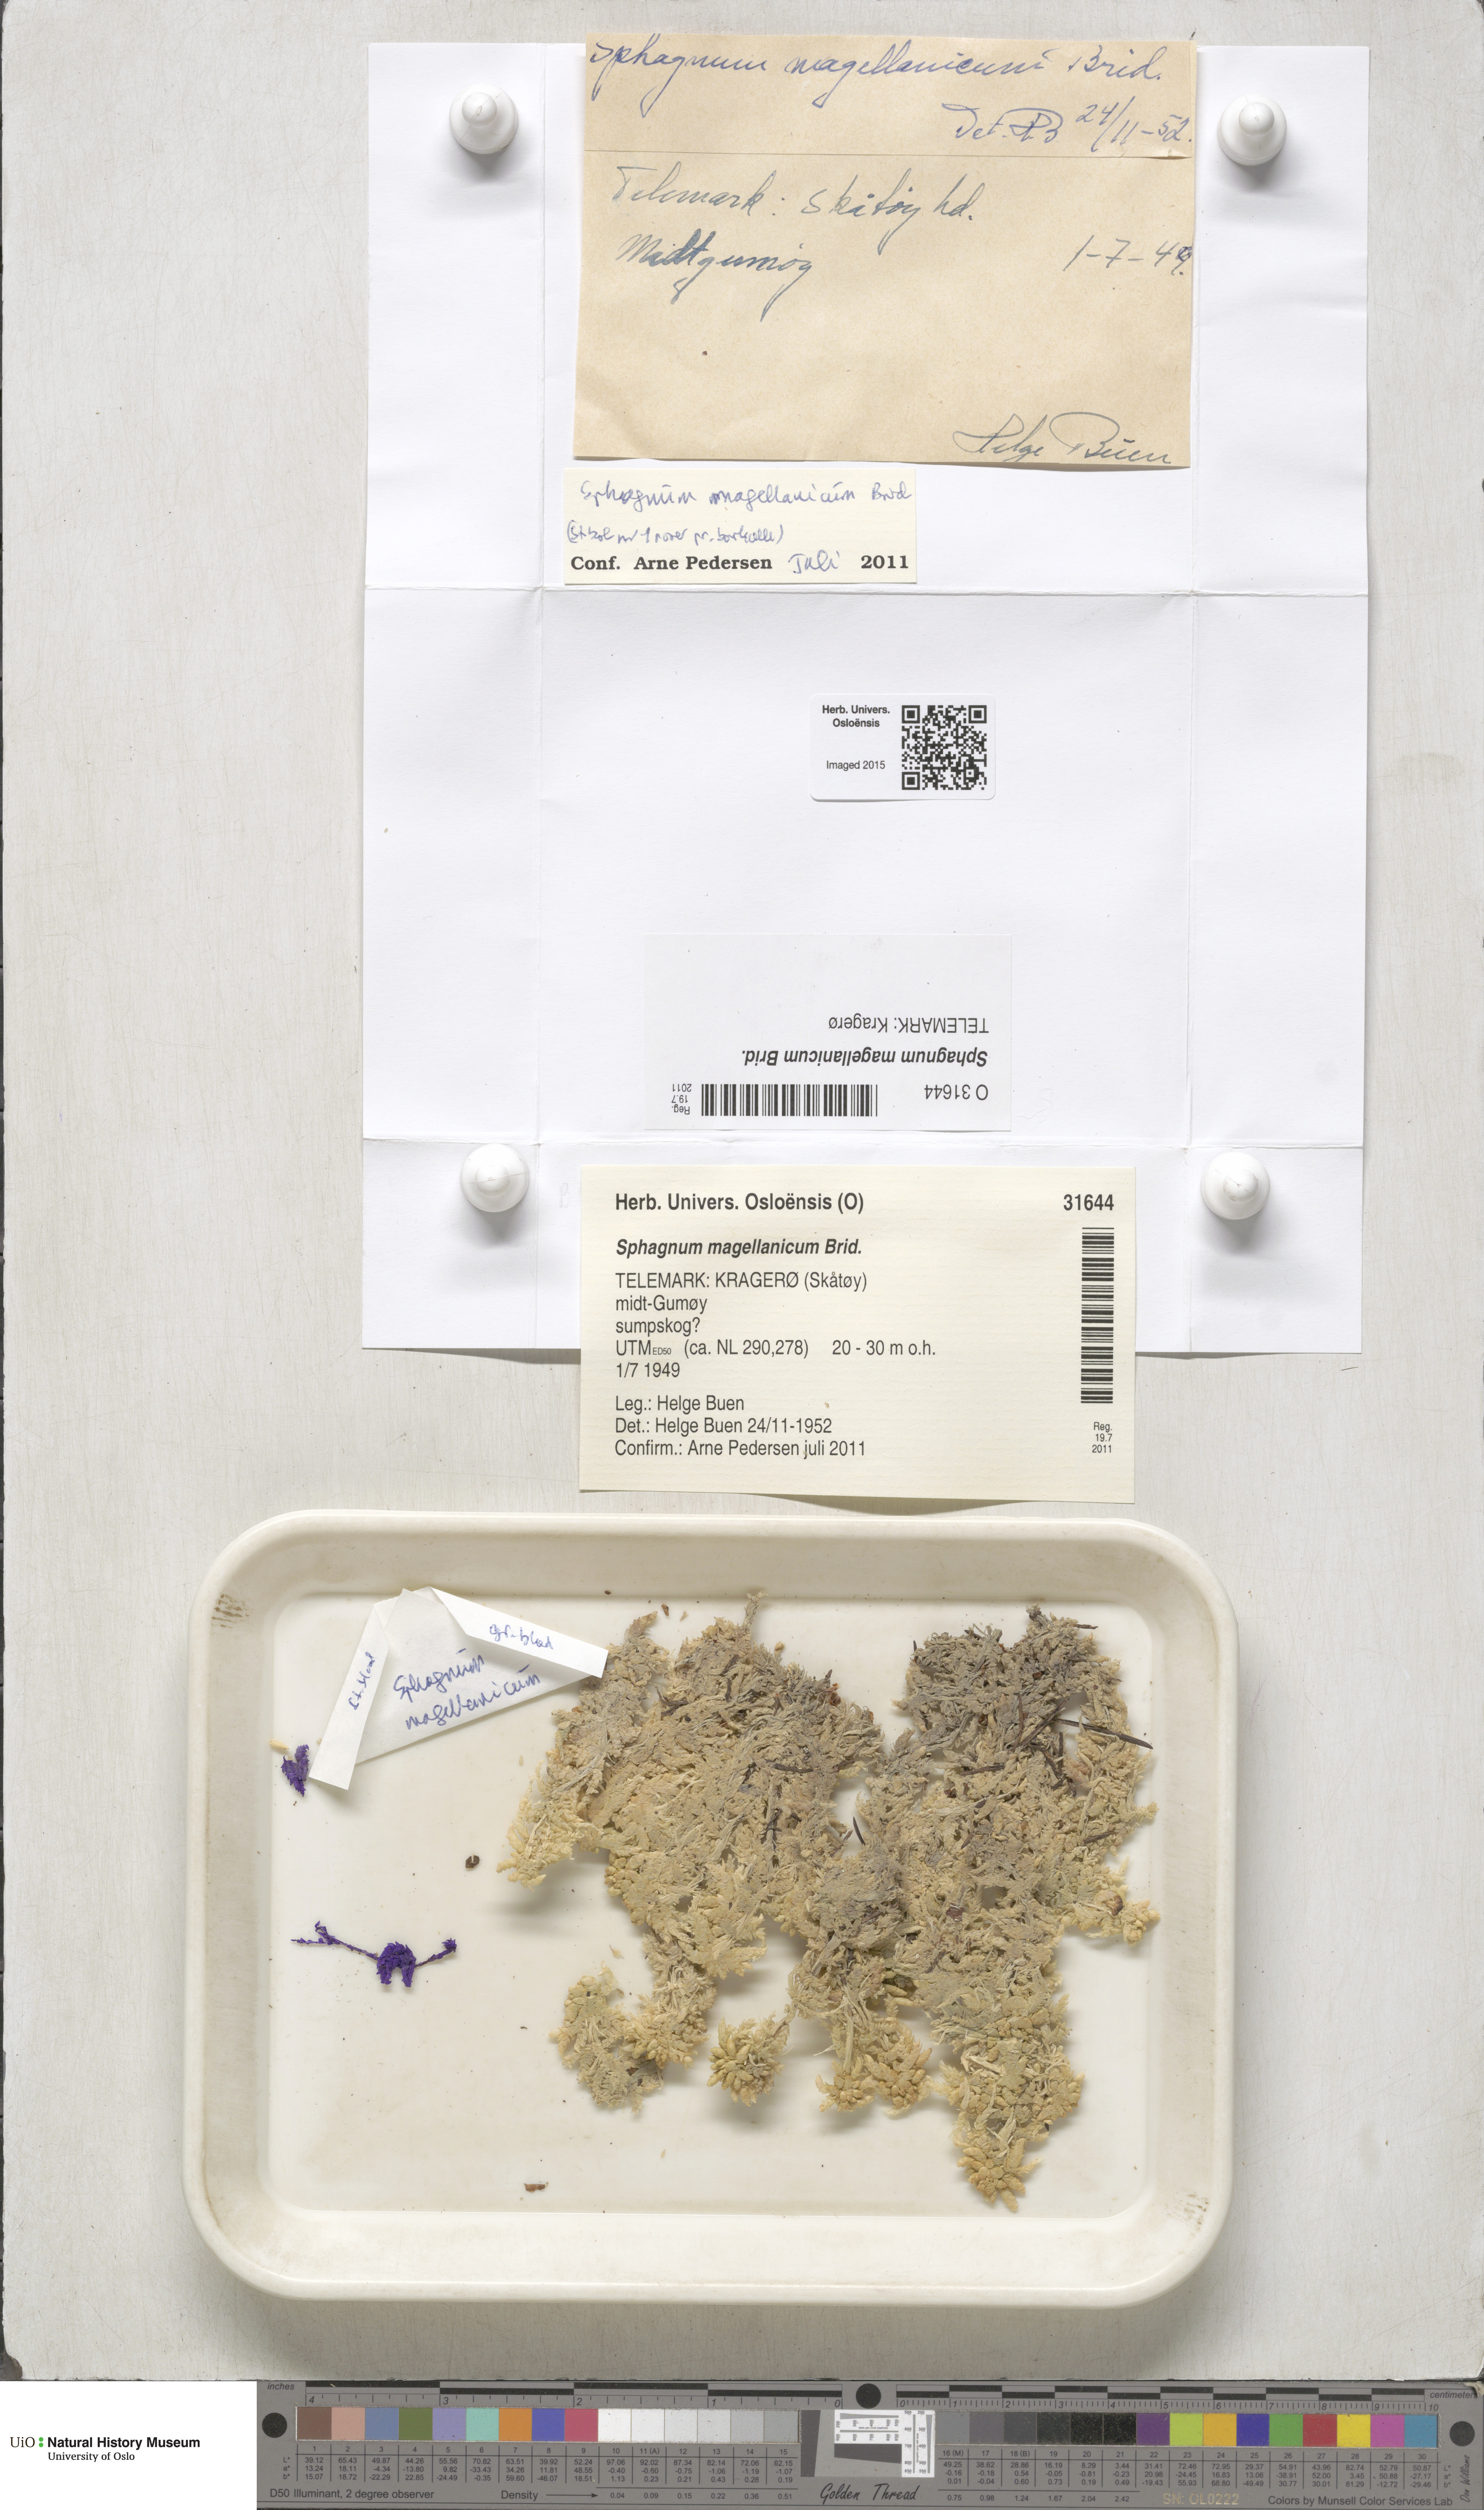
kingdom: Plantae
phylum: Bryophyta
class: Sphagnopsida
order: Sphagnales
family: Sphagnaceae
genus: Sphagnum
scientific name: Sphagnum magellanicum
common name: Magellan's peat moss
